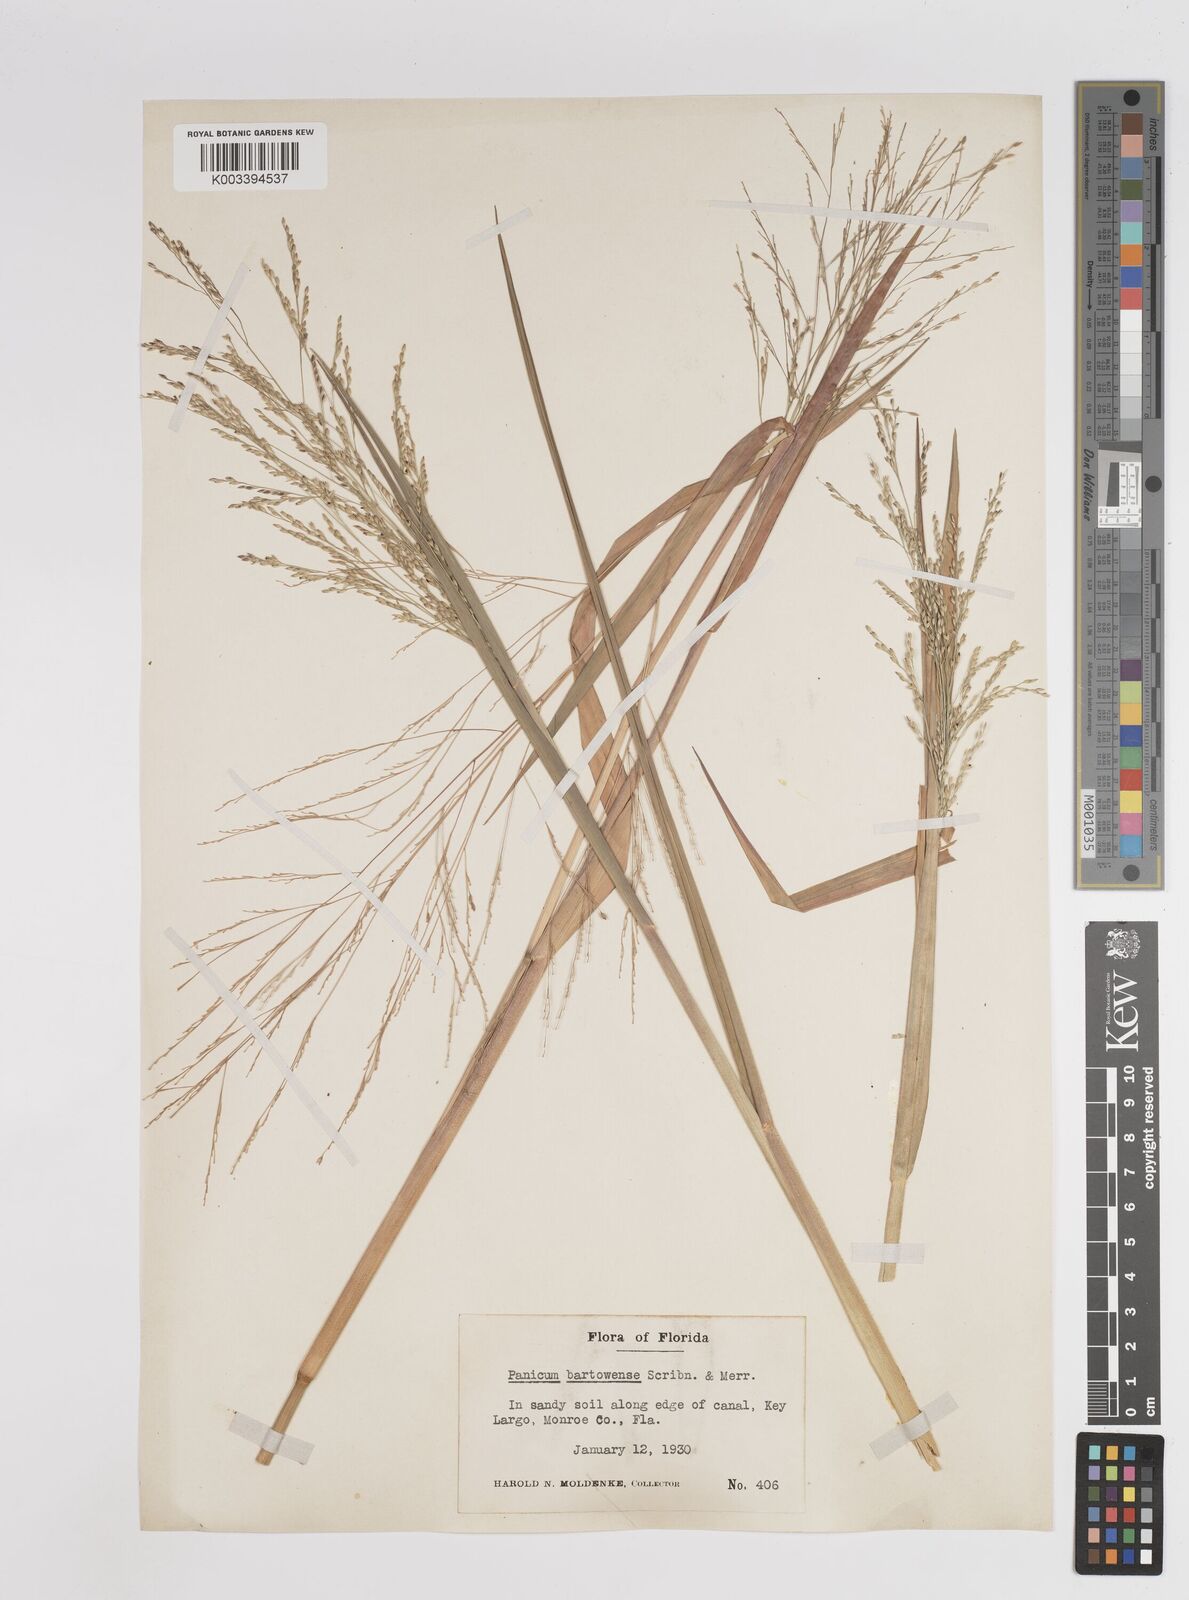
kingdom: Plantae
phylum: Tracheophyta
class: Liliopsida
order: Poales
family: Poaceae
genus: Panicum
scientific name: Panicum bartowense
